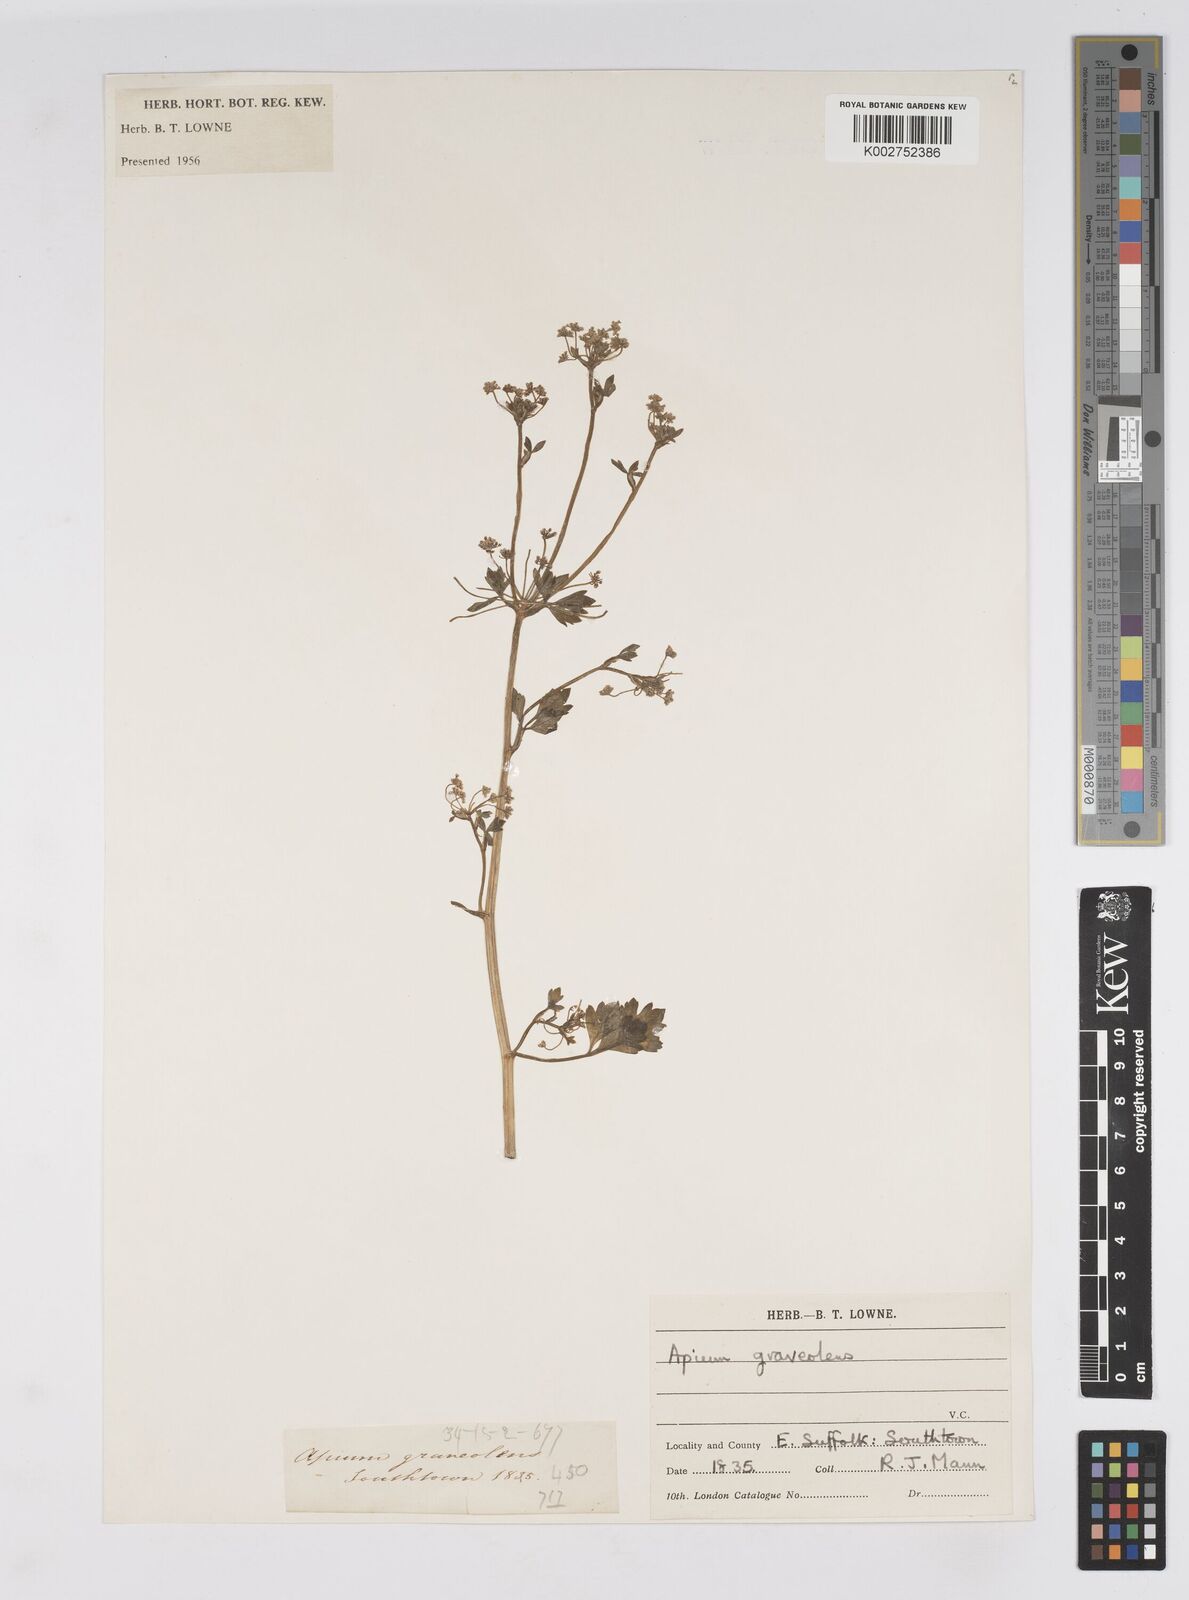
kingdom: Plantae
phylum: Tracheophyta
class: Magnoliopsida
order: Apiales
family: Apiaceae
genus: Apium
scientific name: Apium graveolens
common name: Wild celery
